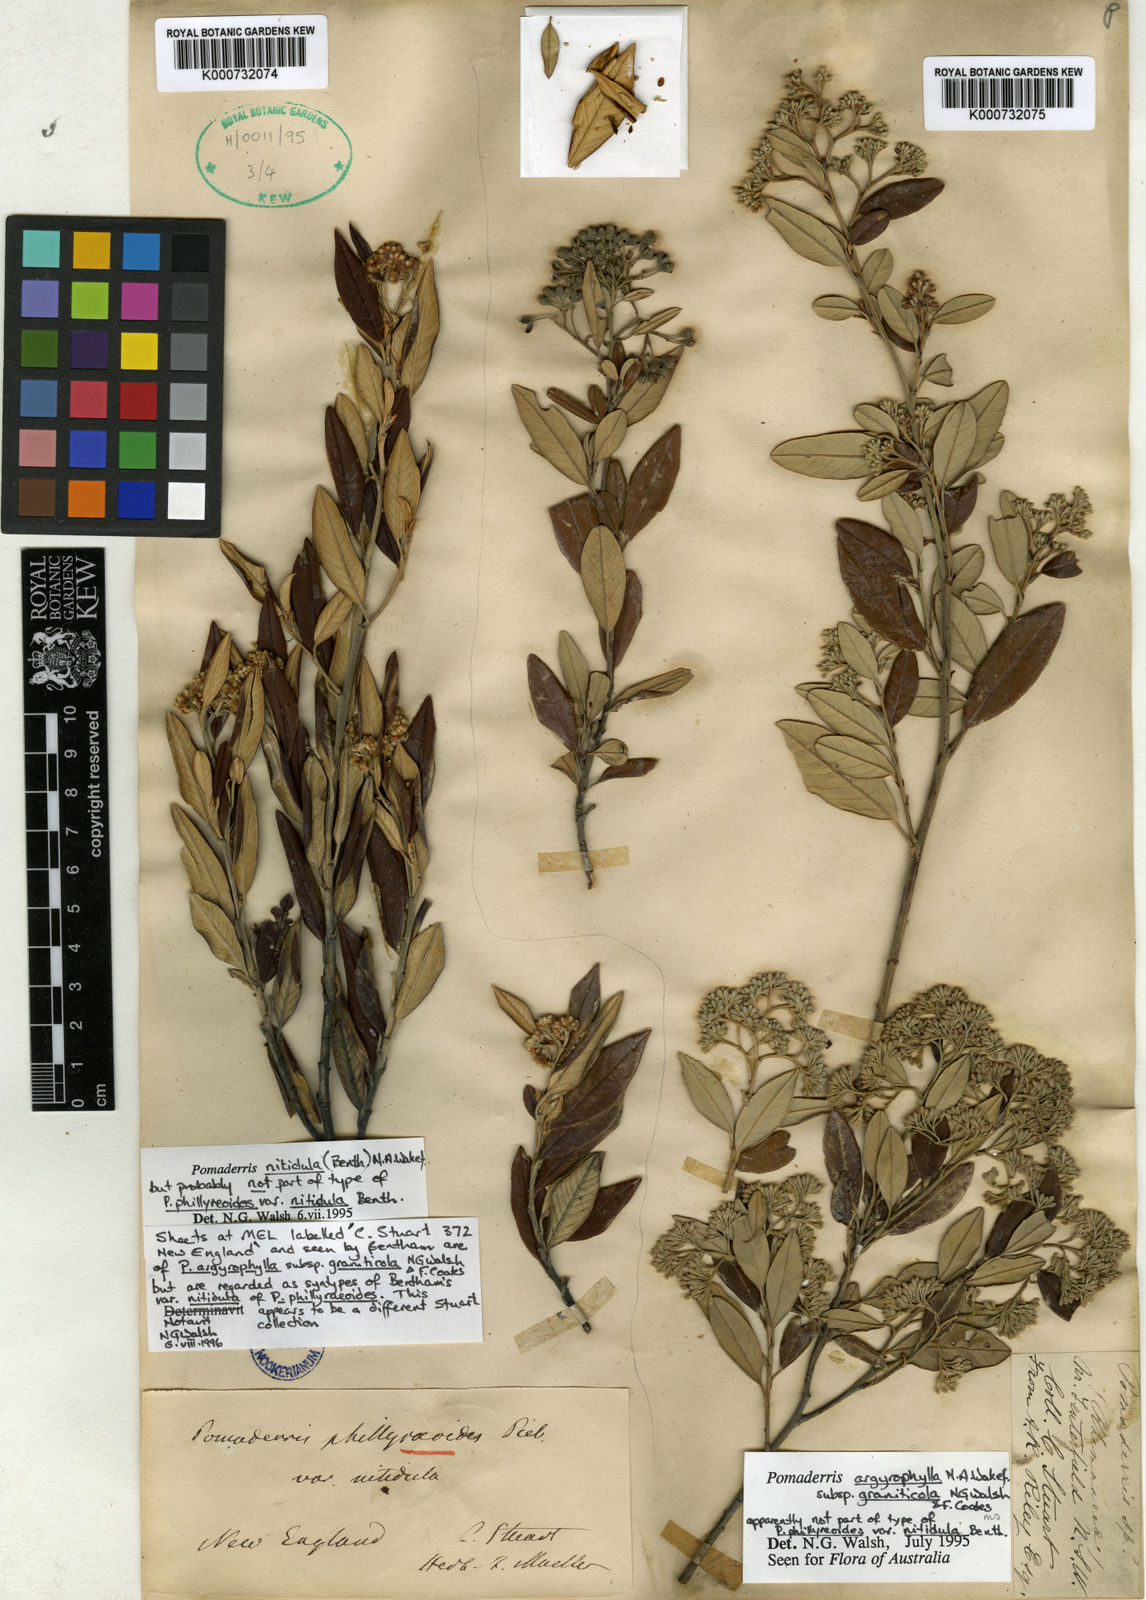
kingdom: Plantae
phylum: Tracheophyta
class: Magnoliopsida
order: Rosales
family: Rhamnaceae
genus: Pomaderris
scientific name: Pomaderris nitidula
